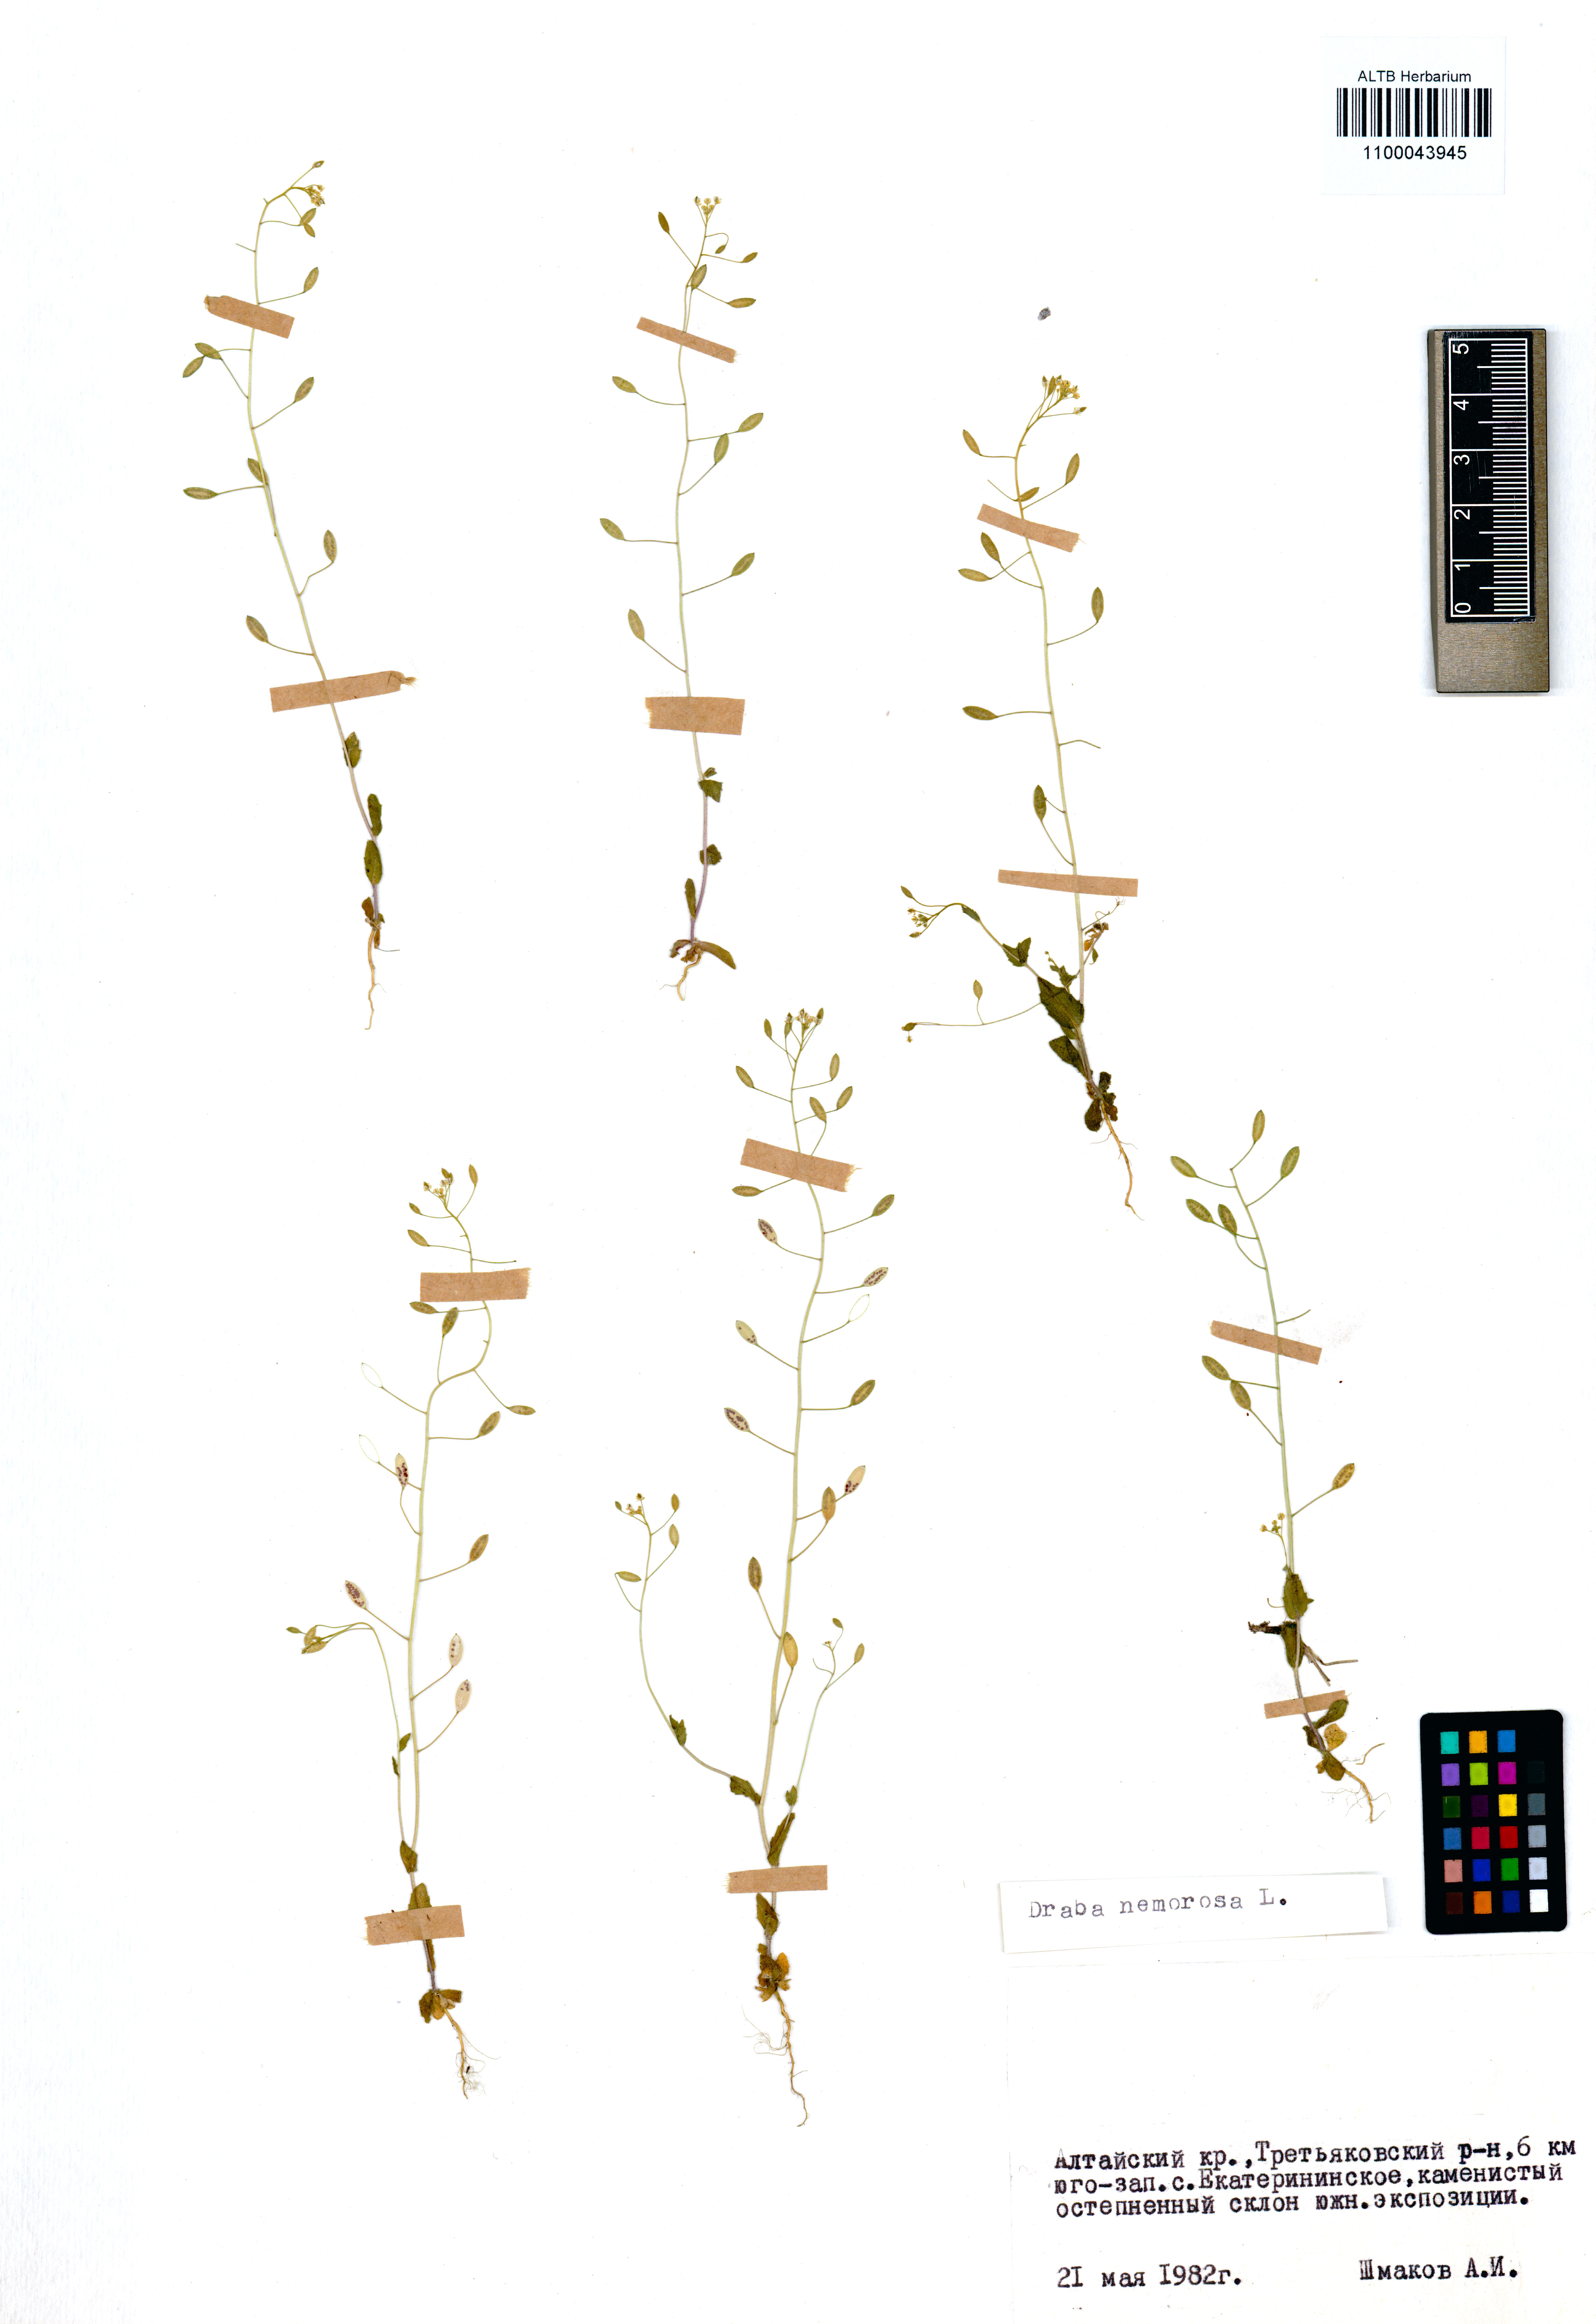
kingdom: Plantae
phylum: Tracheophyta
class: Magnoliopsida
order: Brassicales
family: Brassicaceae
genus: Draba
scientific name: Draba nemorosa
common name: Wood whitlow-grass
